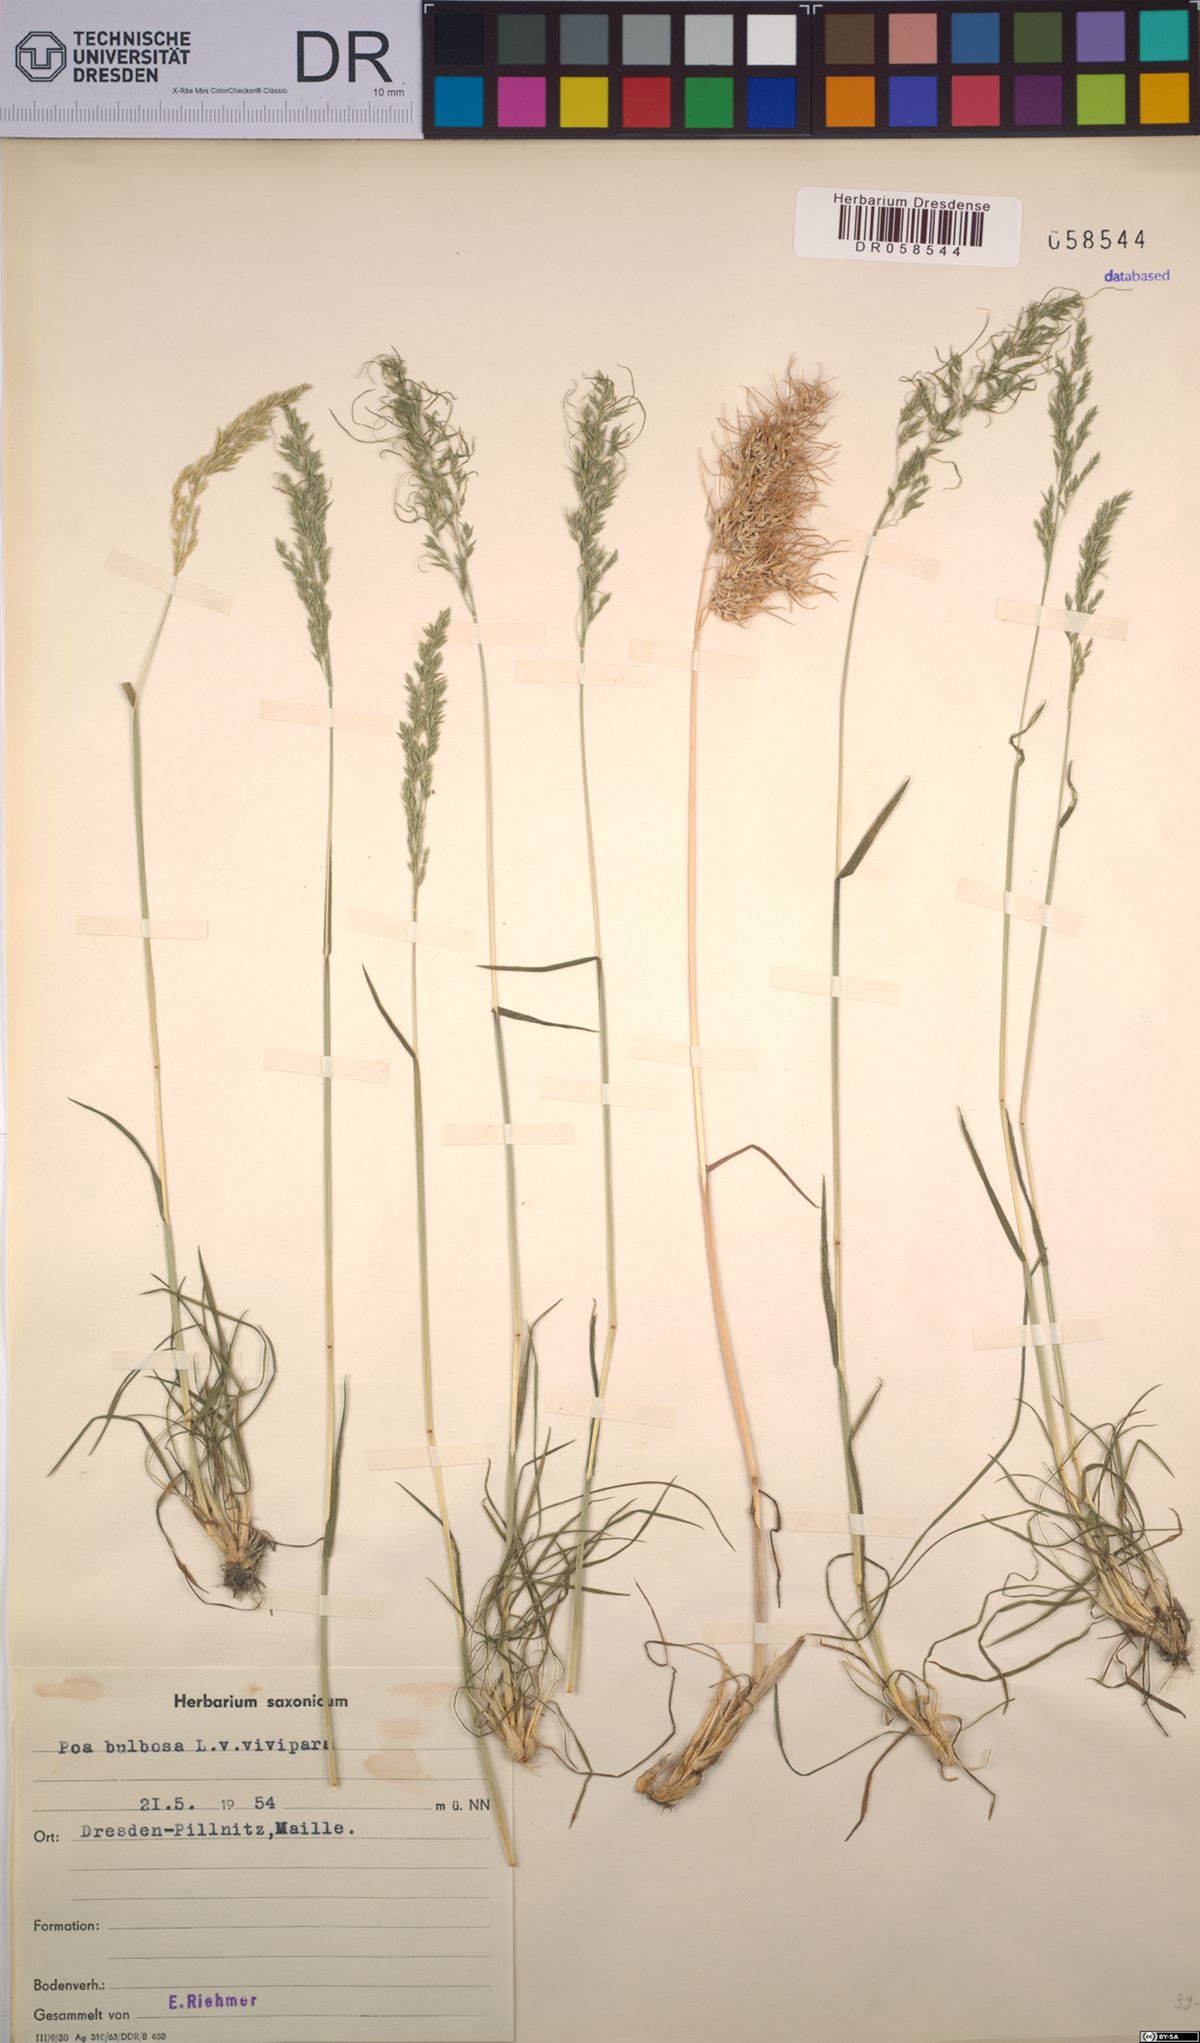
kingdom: Plantae
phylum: Tracheophyta
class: Liliopsida
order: Poales
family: Poaceae
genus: Poa
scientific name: Poa bulbosa
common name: Bulbous bluegrass
